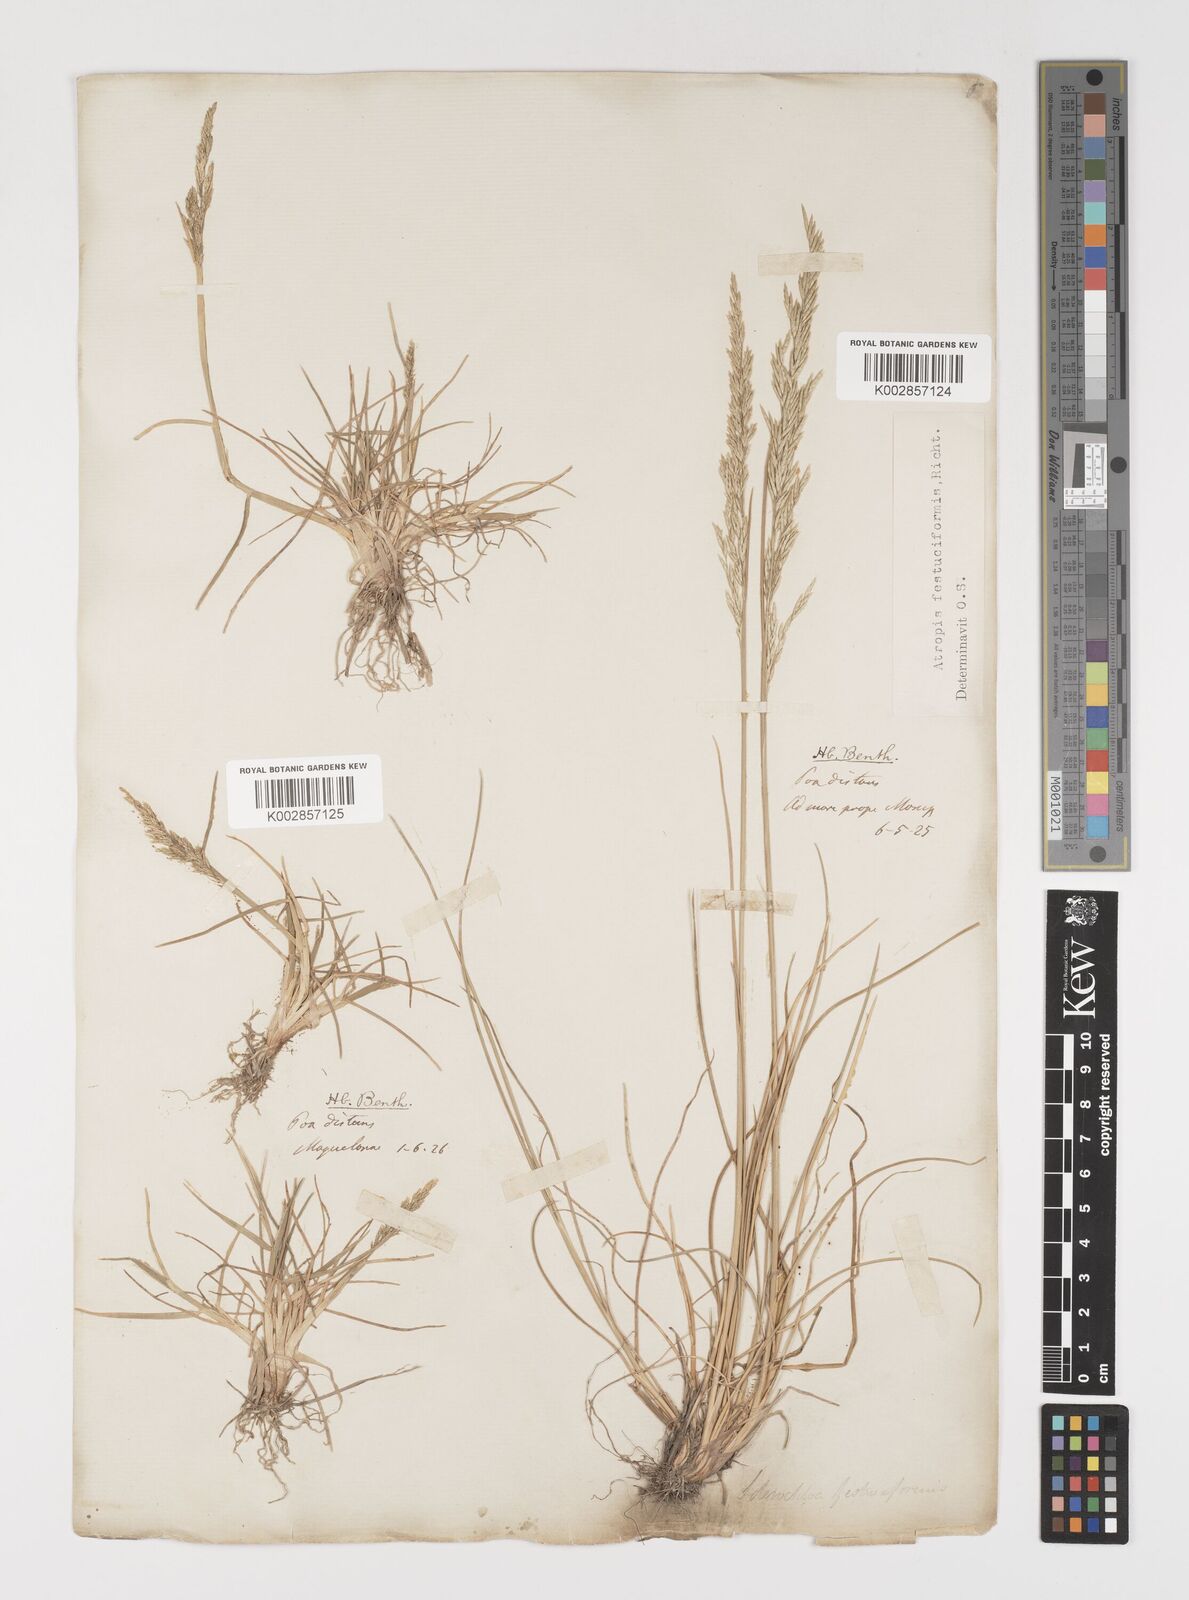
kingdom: Plantae
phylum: Tracheophyta
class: Liliopsida
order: Poales
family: Poaceae
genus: Puccinellia
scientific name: Puccinellia festuciformis
